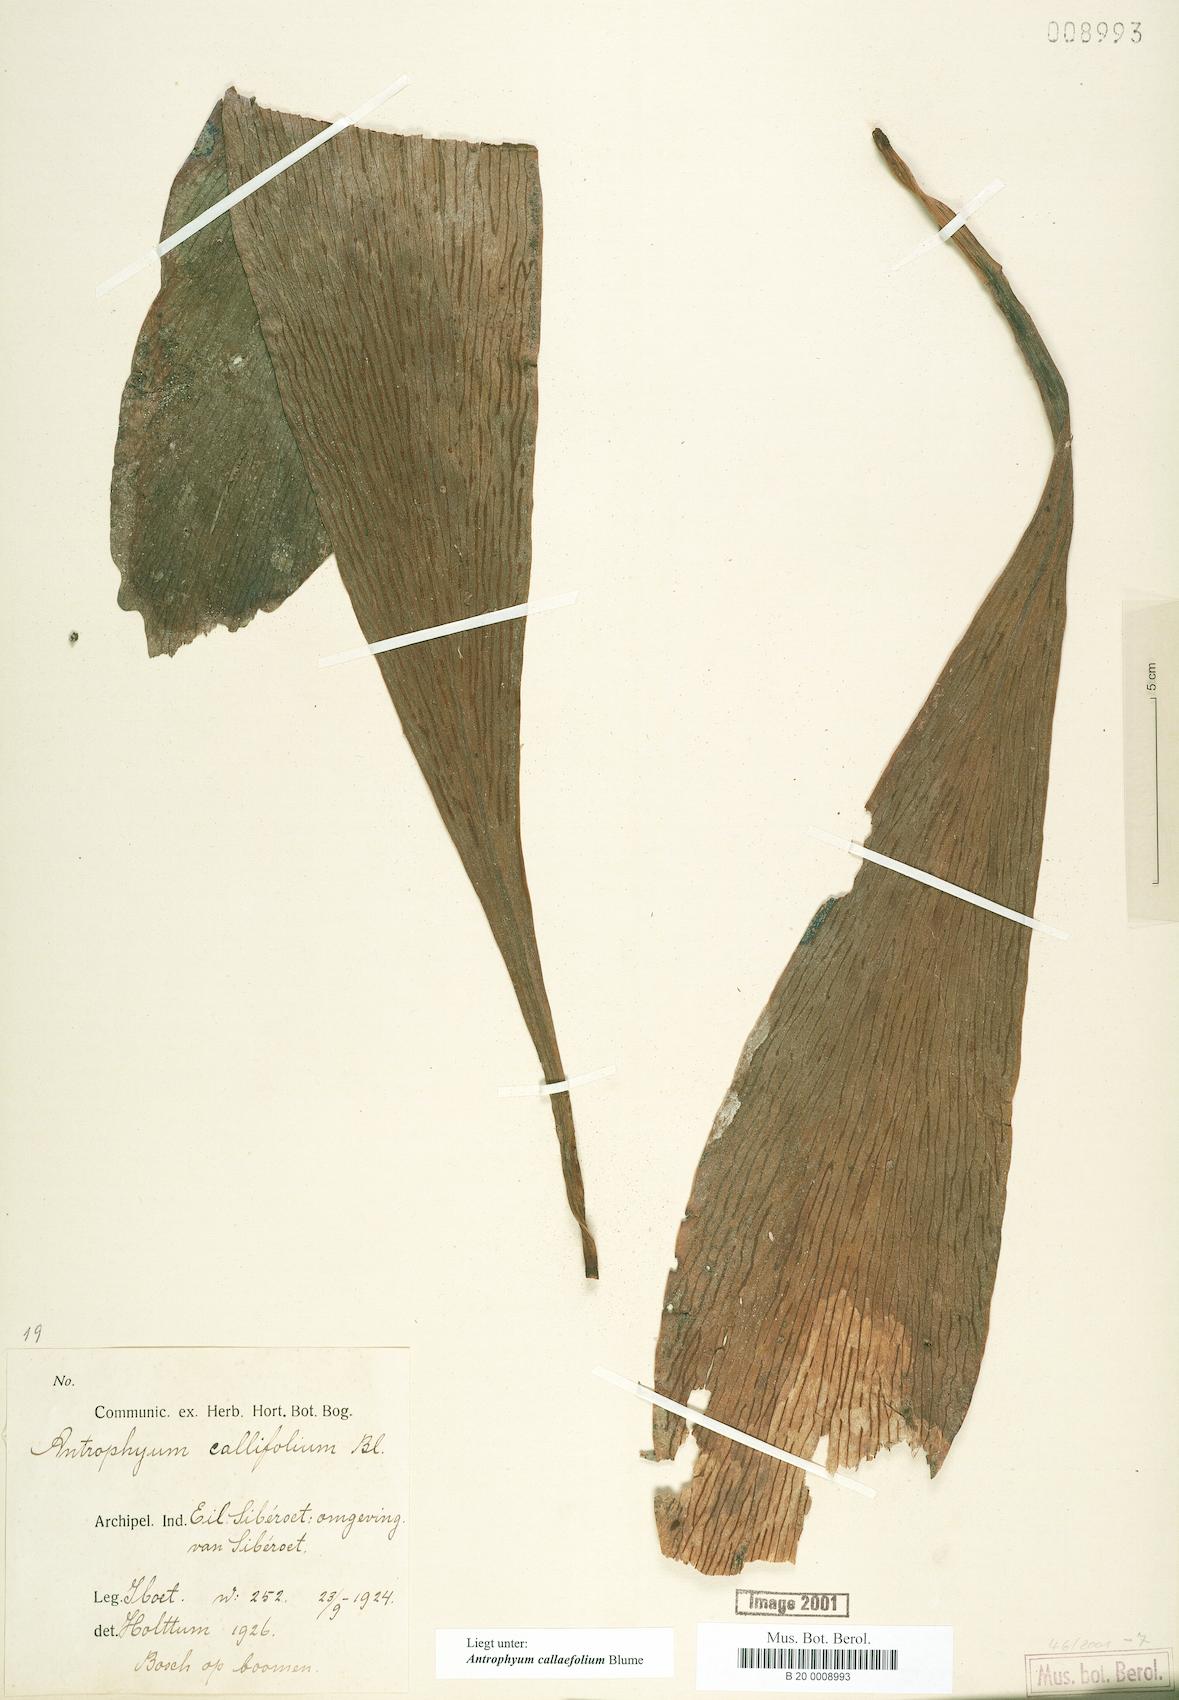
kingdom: Plantae
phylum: Tracheophyta
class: Polypodiopsida
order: Polypodiales
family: Pteridaceae
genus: Antrophyum
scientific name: Antrophyum callifolium
